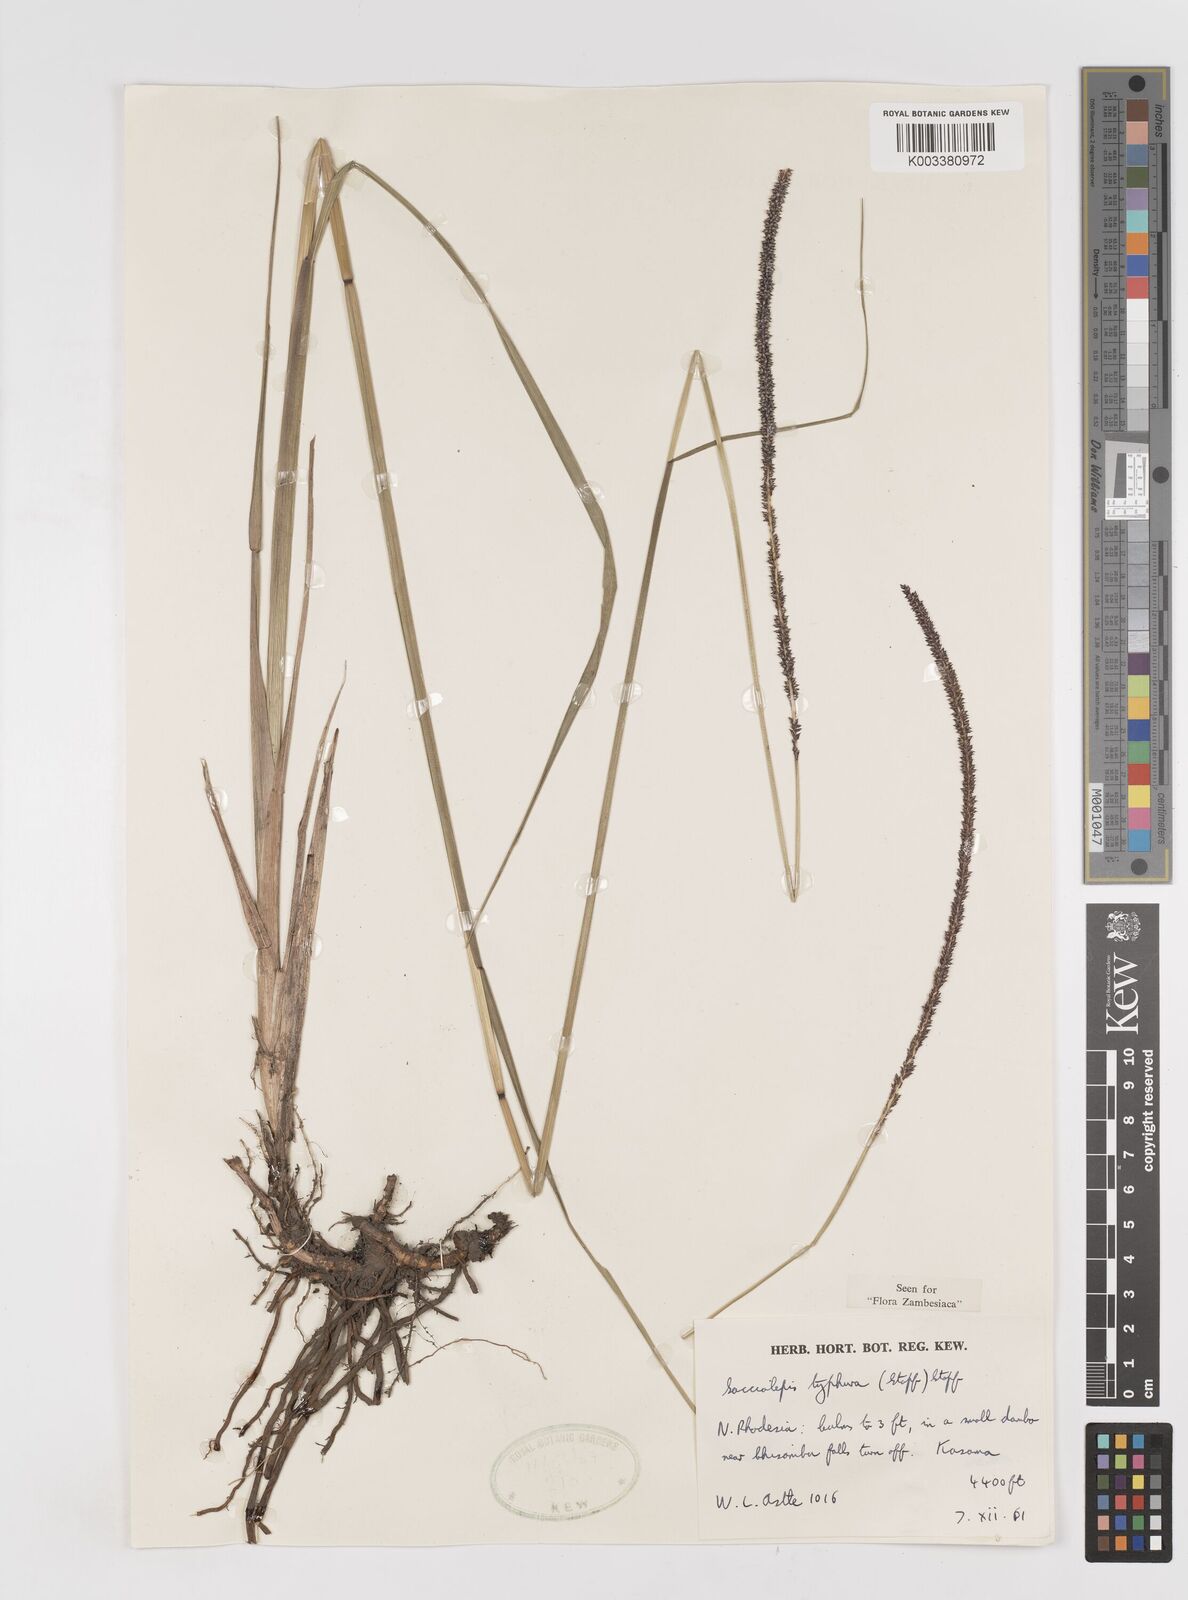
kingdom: Plantae
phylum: Tracheophyta
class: Liliopsida
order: Poales
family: Poaceae
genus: Sacciolepis
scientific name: Sacciolepis typhura
